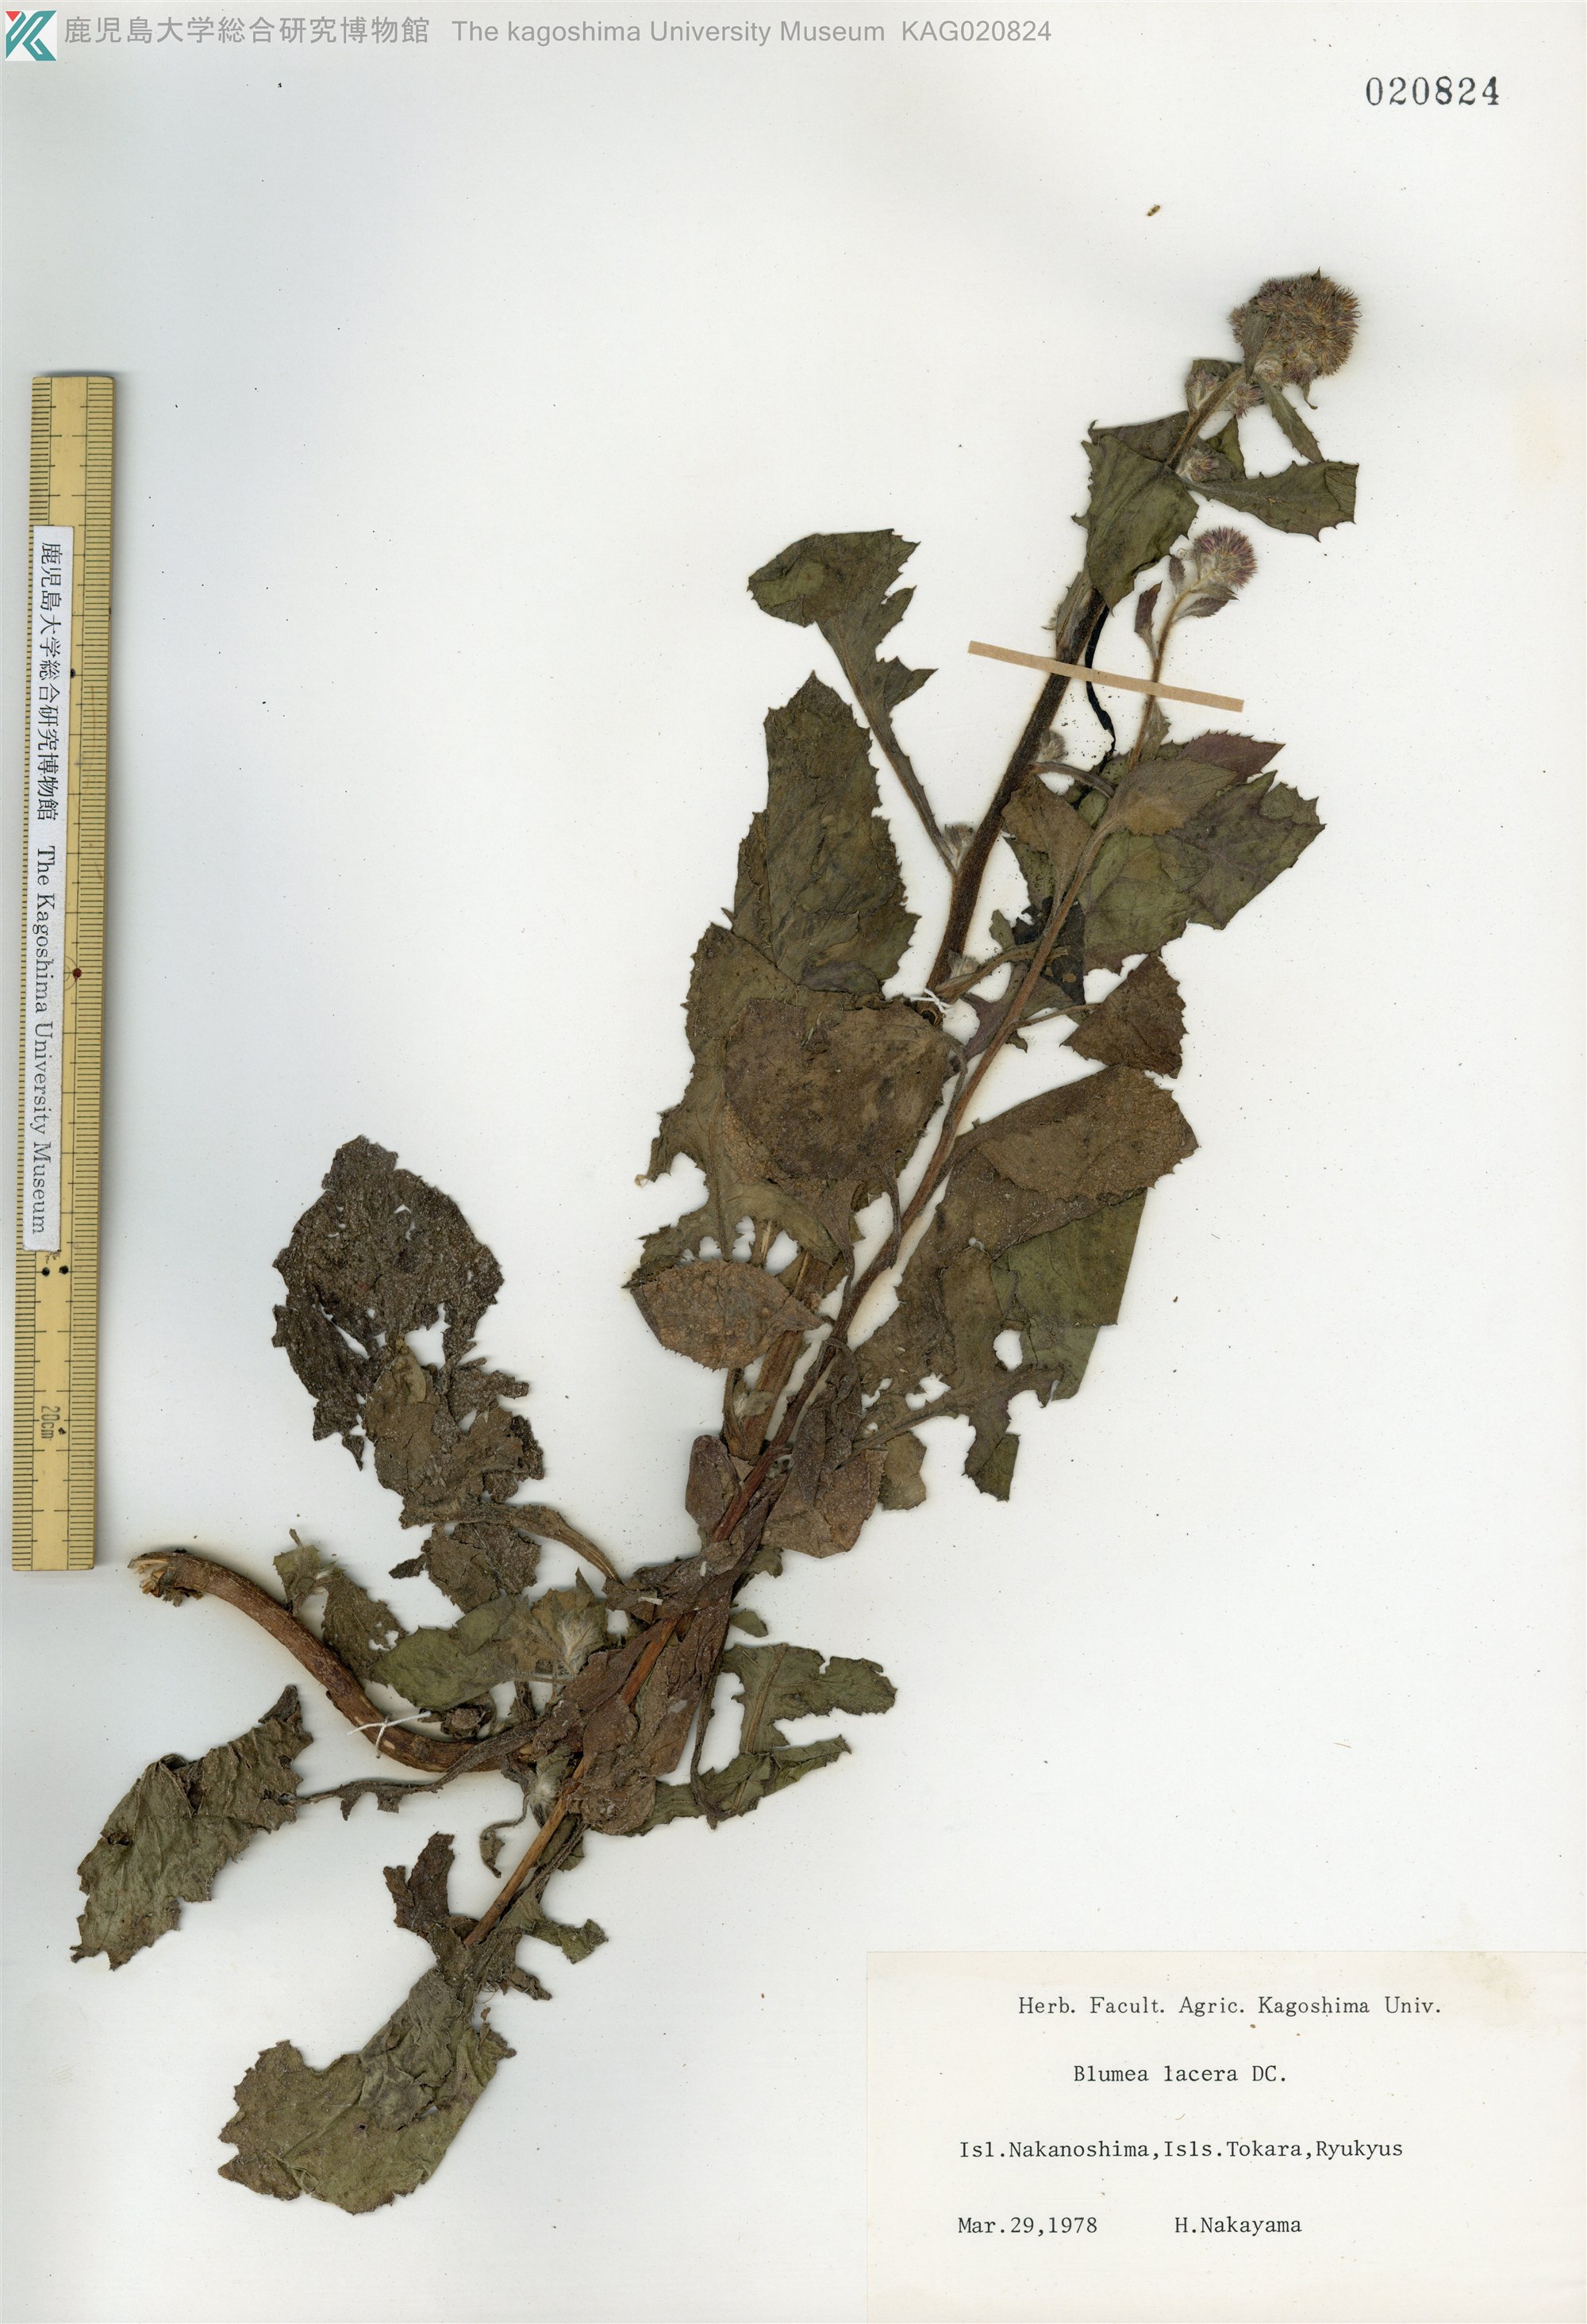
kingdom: Plantae
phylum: Tracheophyta
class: Magnoliopsida
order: Asterales
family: Asteraceae
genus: Blumea
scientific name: Blumea sinuata
